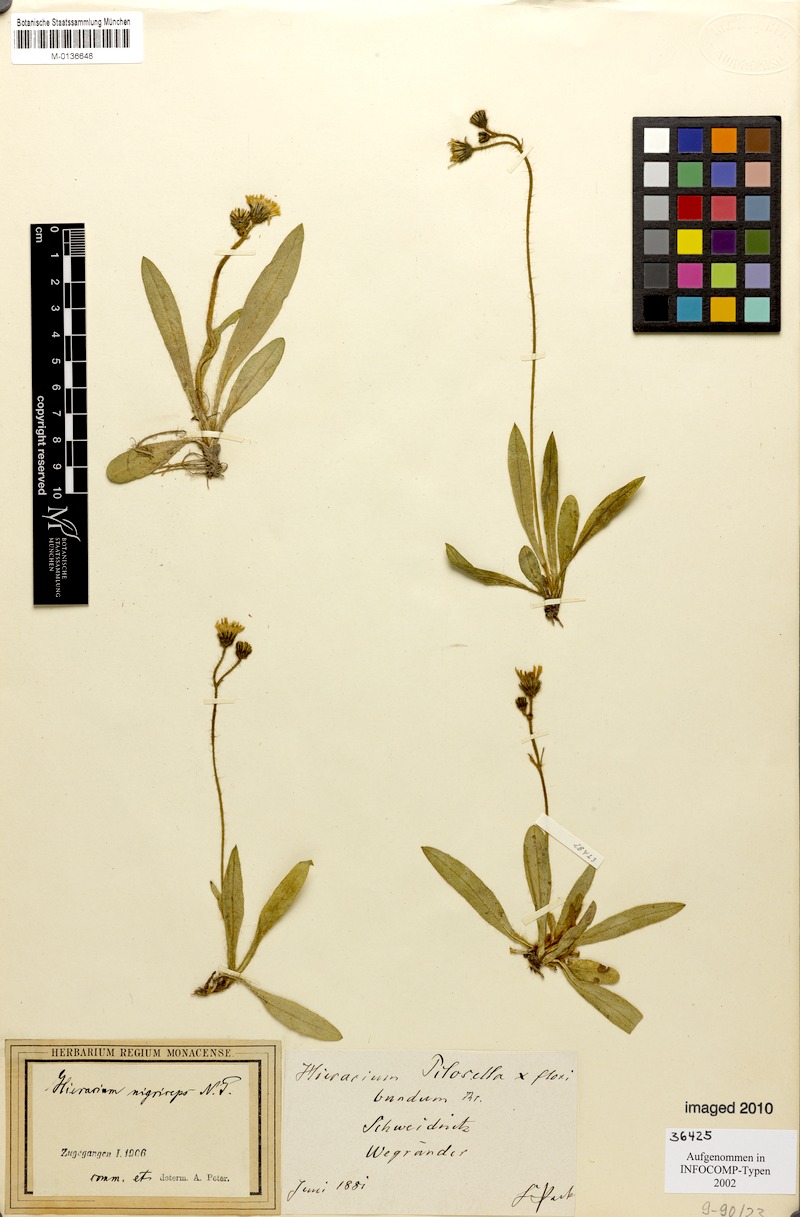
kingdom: Plantae
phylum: Tracheophyta
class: Magnoliopsida
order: Asterales
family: Asteraceae
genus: Pilosella
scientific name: Pilosella iserana
